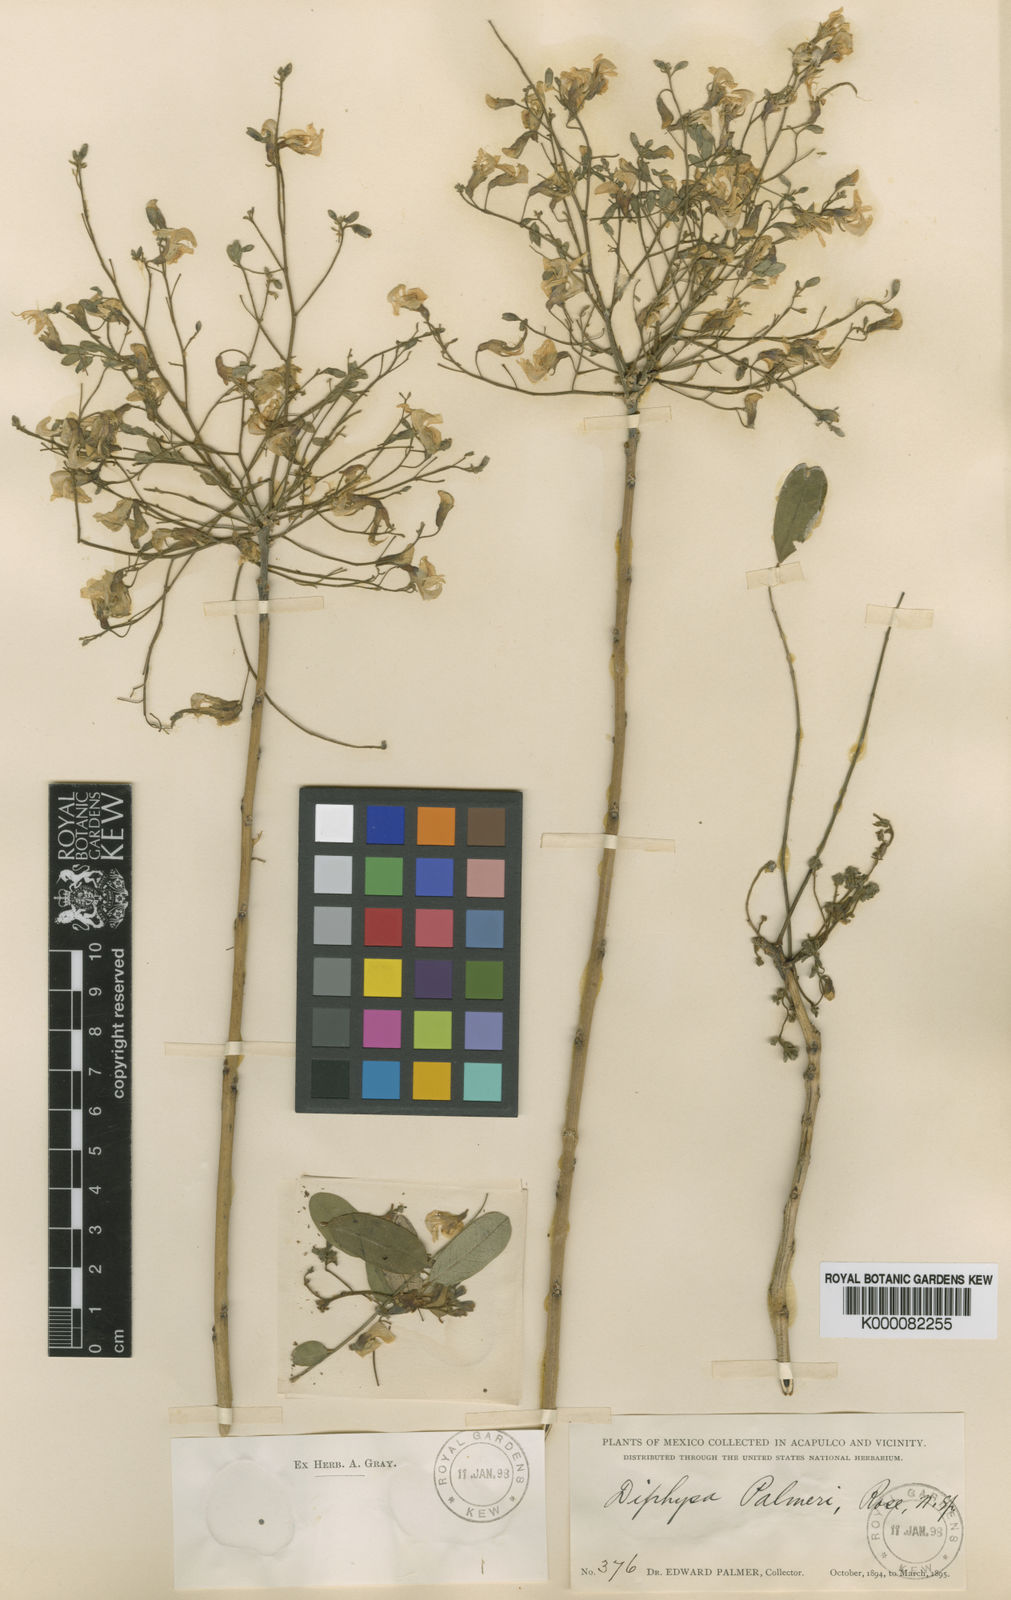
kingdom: Plantae
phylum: Tracheophyta
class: Magnoliopsida
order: Fabales
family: Fabaceae
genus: Diphysa
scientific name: Diphysa
